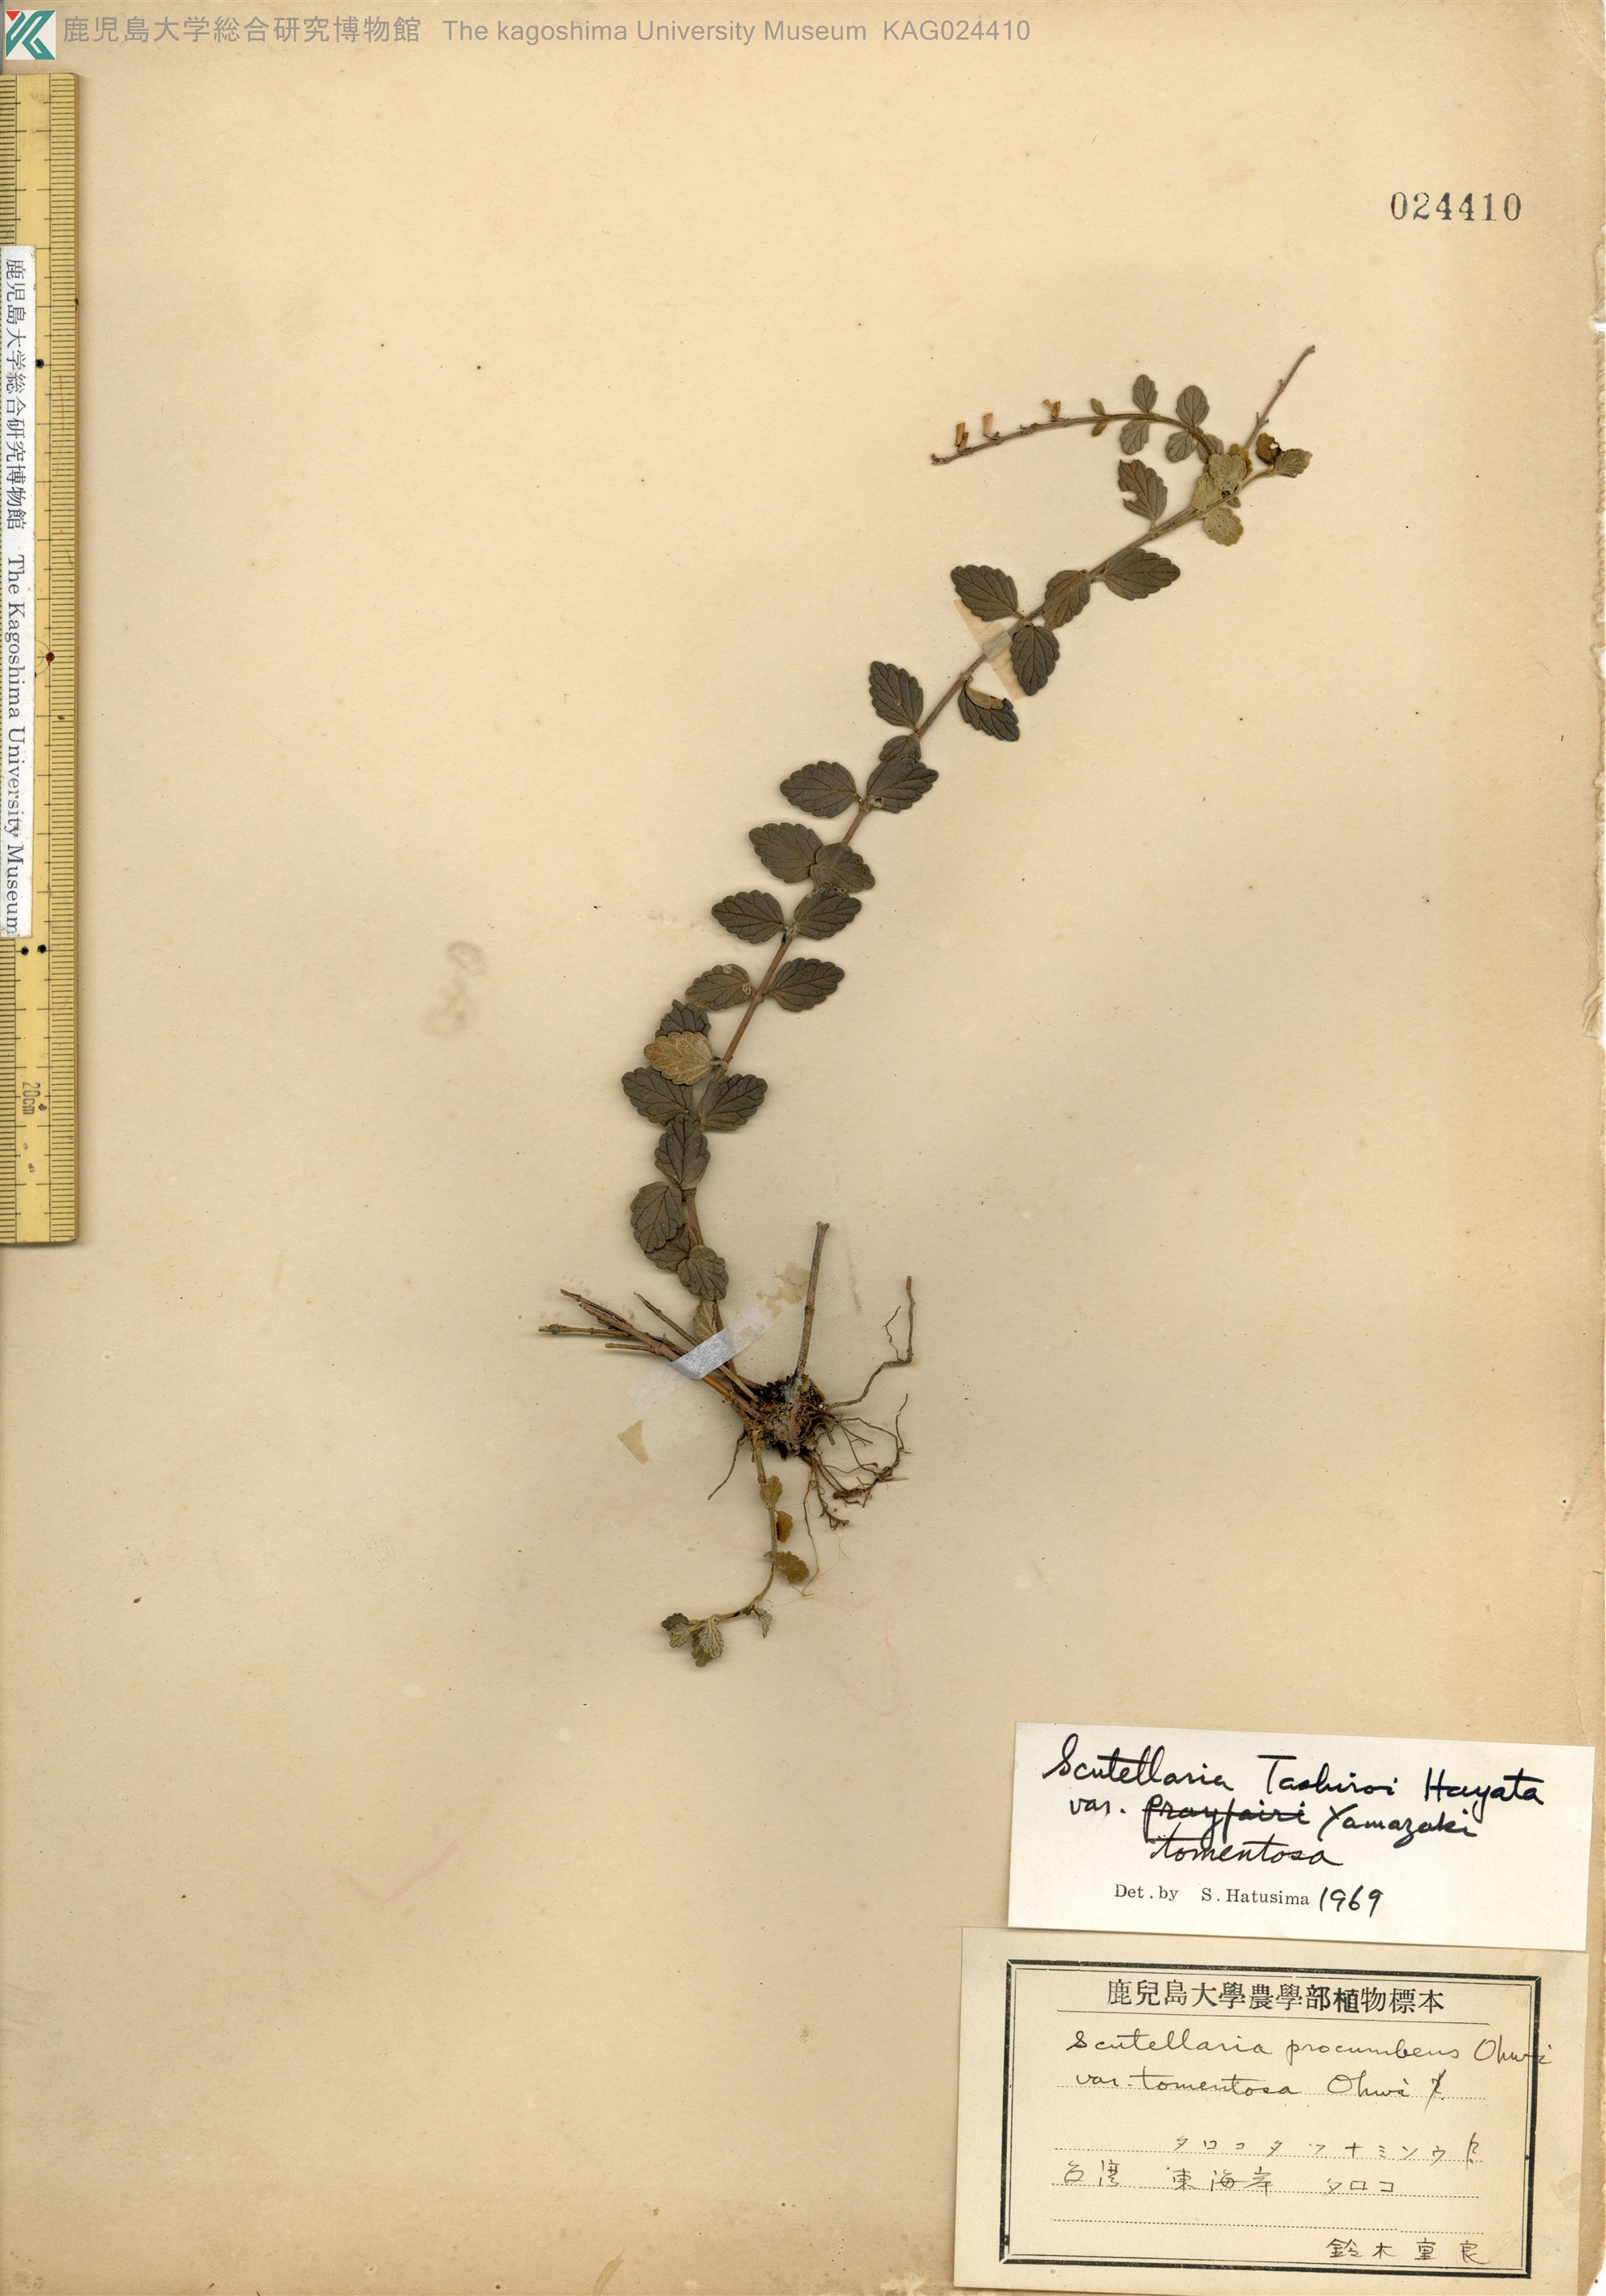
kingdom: Plantae
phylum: Tracheophyta
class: Magnoliopsida
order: Lamiales
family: Lamiaceae
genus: Scutellaria
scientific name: Scutellaria indica
